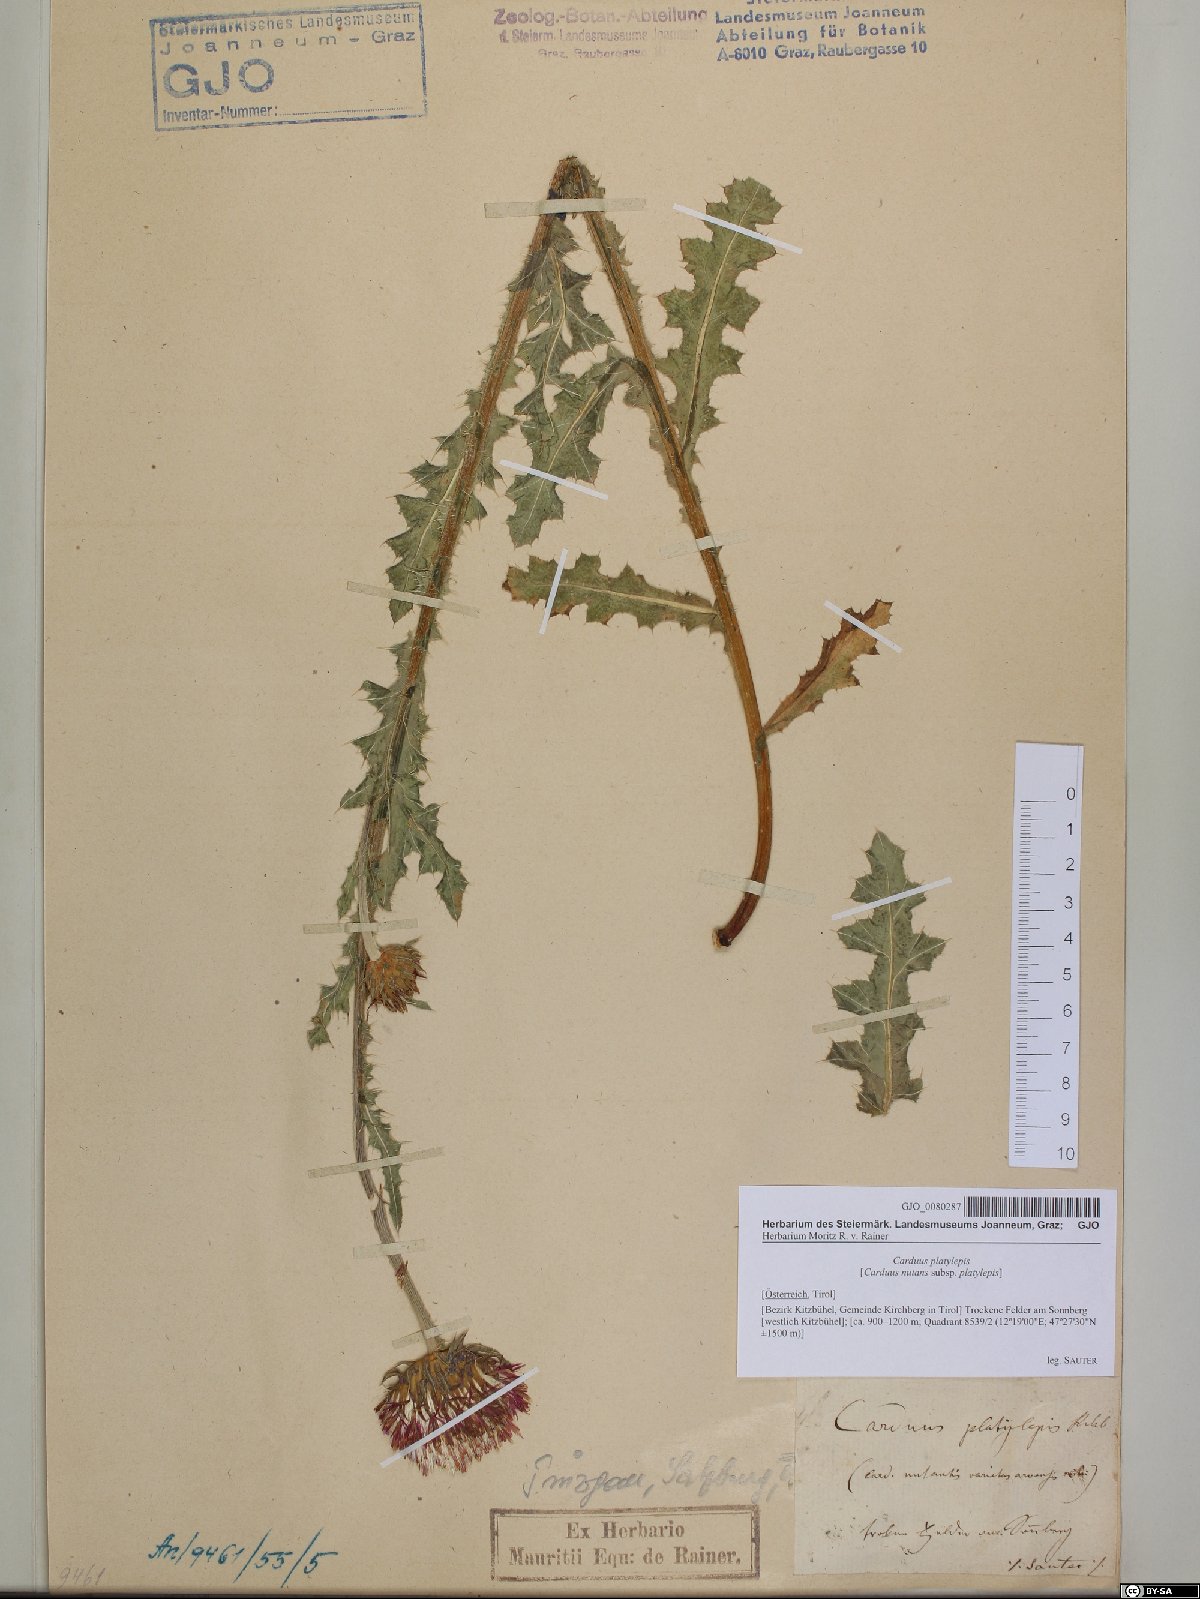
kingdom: Plantae
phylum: Tracheophyta
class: Magnoliopsida
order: Asterales
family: Asteraceae
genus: Carduus
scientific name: Carduus nutans
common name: Musk thistle
